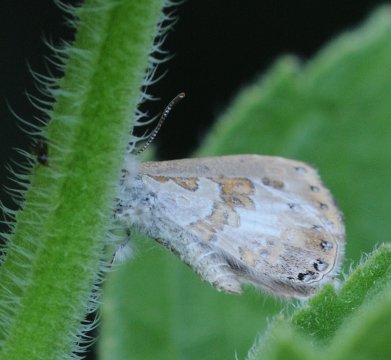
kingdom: Animalia
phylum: Arthropoda
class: Insecta
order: Lepidoptera
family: Lycaenidae
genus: Lachnocnema
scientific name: Lachnocnema bibulus
